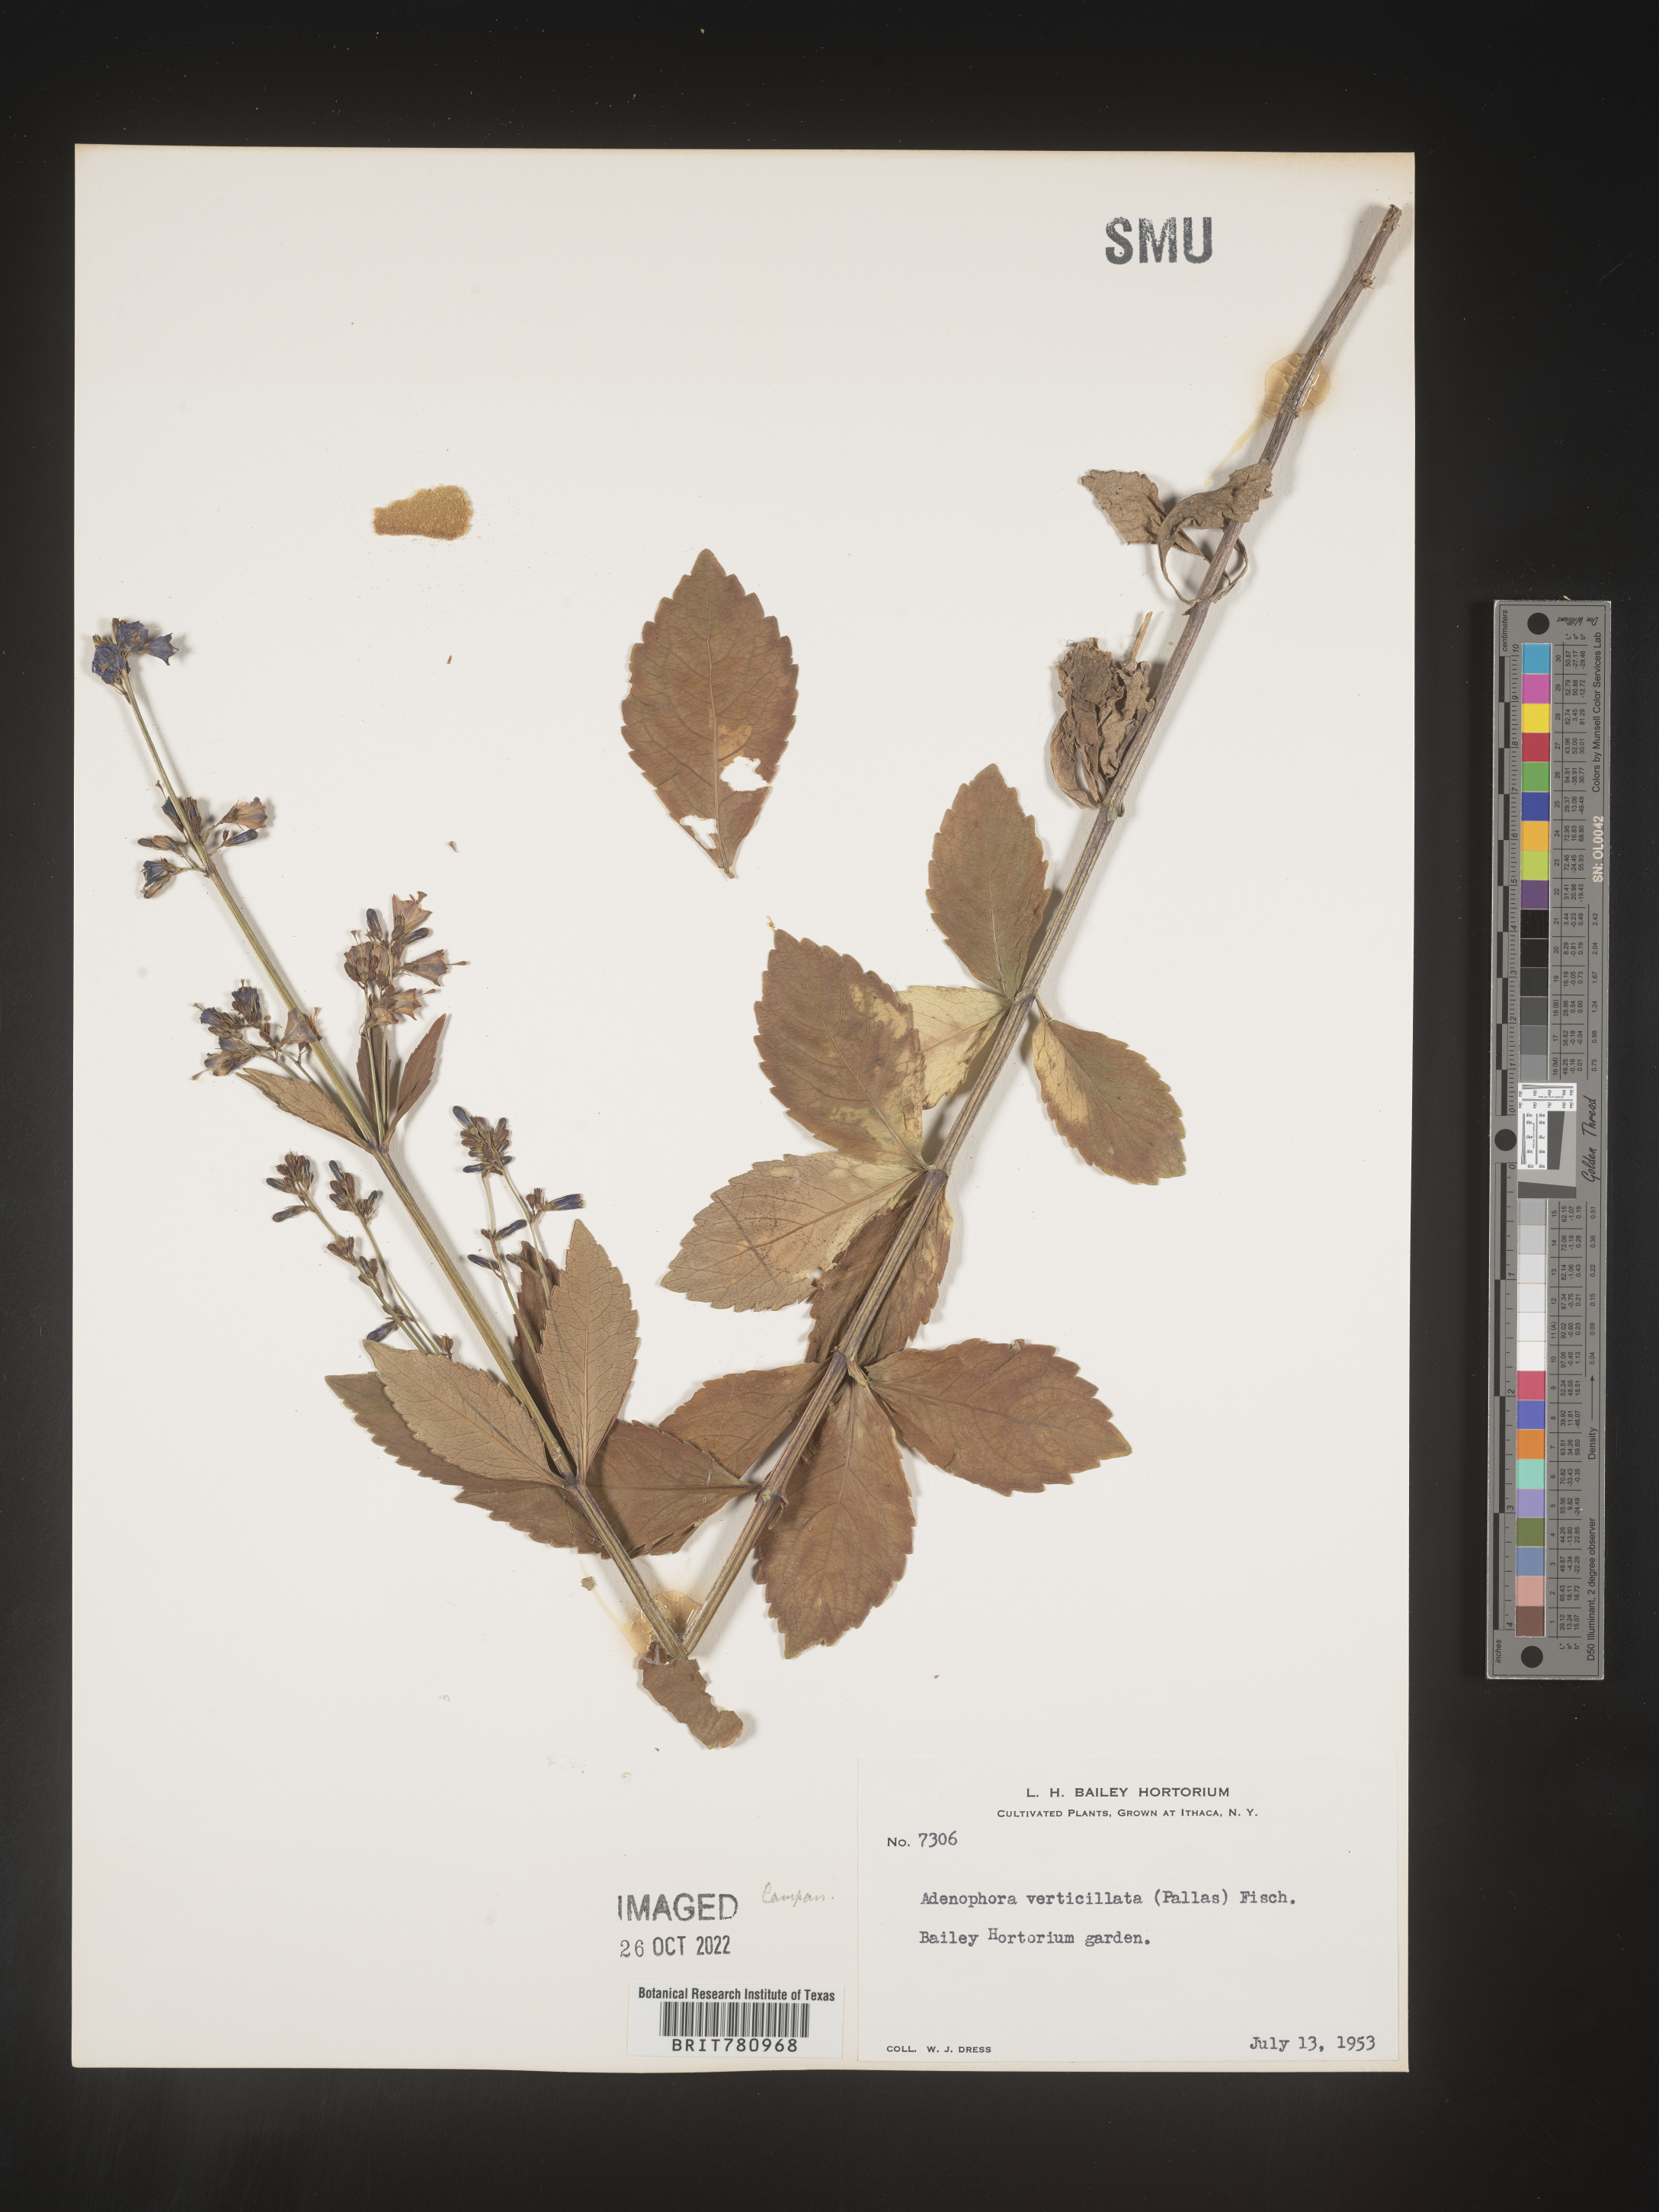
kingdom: Plantae
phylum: Tracheophyta
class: Magnoliopsida
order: Asterales
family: Campanulaceae
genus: Adenophora
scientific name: Adenophora
